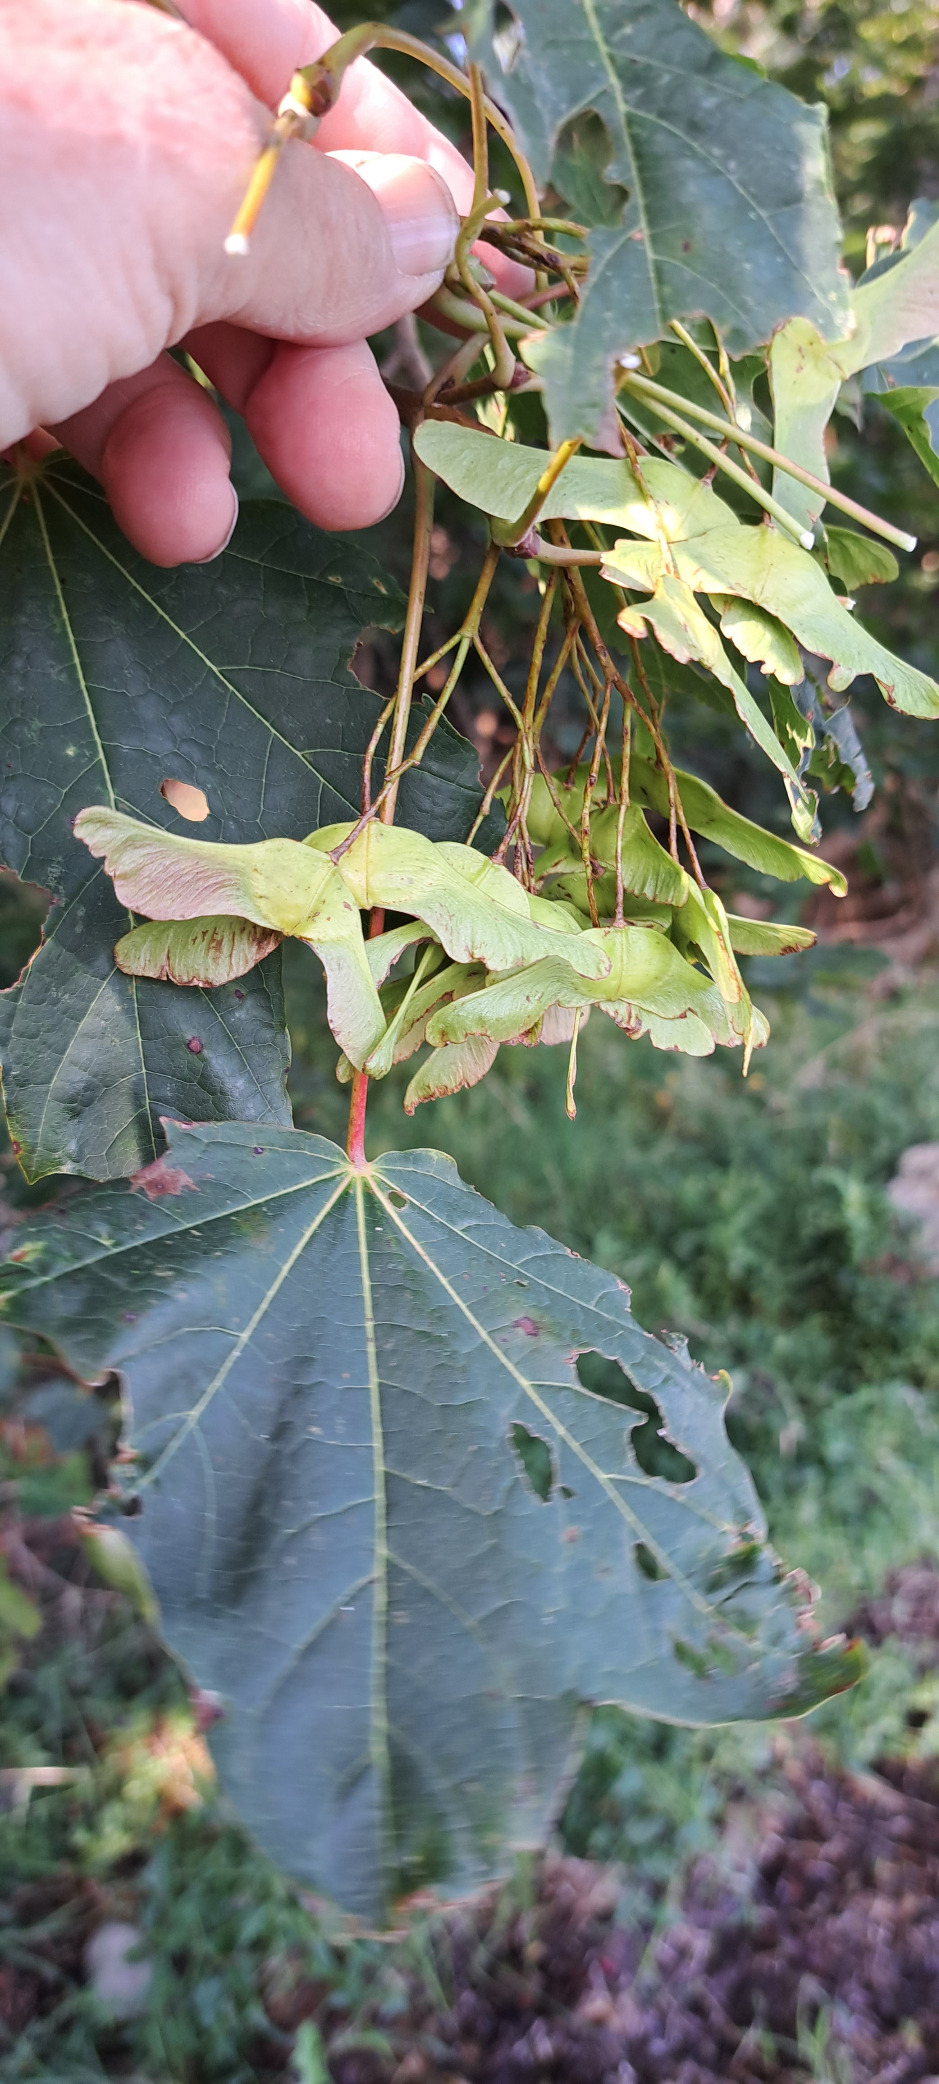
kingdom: Plantae
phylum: Tracheophyta
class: Magnoliopsida
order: Sapindales
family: Sapindaceae
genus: Acer
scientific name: Acer platanoides
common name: Spids-løn
